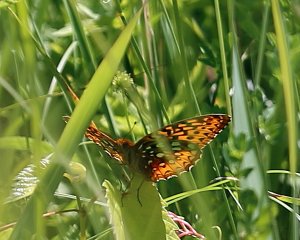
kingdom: Animalia
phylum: Arthropoda
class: Insecta
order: Lepidoptera
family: Nymphalidae
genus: Speyeria
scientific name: Speyeria cybele
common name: Great Spangled Fritillary
